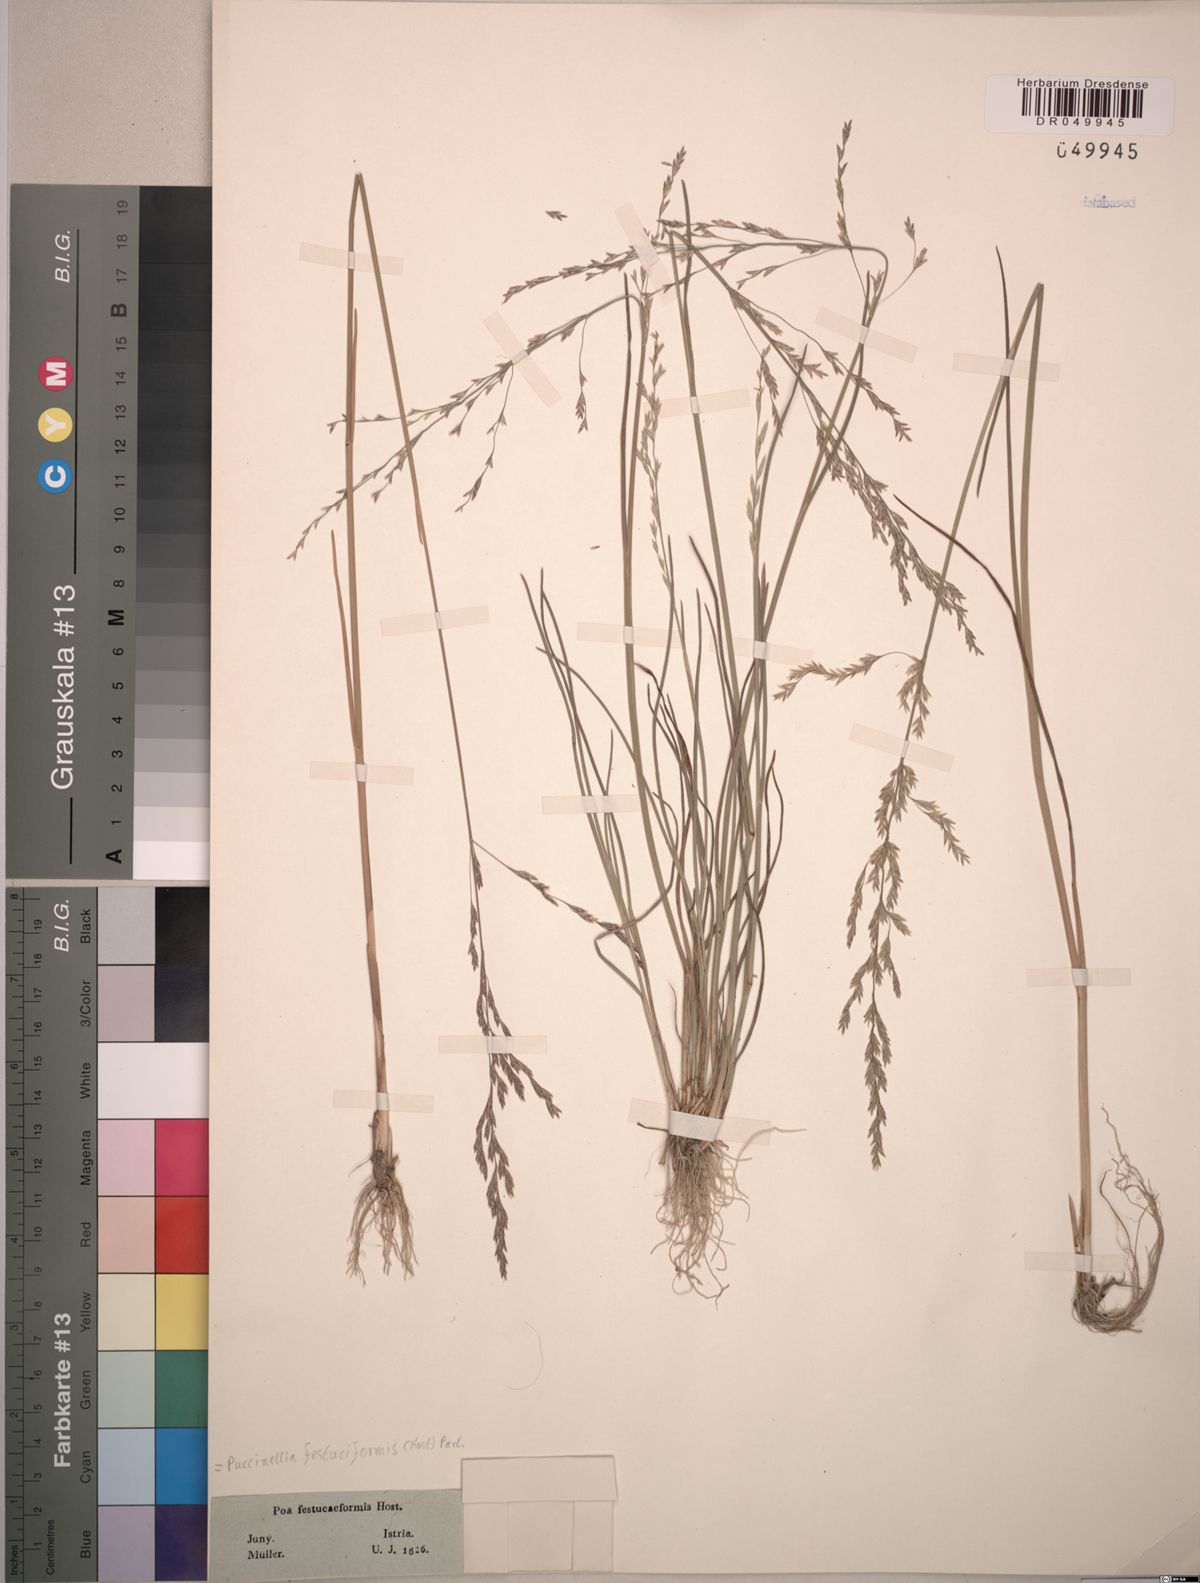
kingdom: Plantae
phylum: Tracheophyta
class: Liliopsida
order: Poales
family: Poaceae
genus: Puccinellia
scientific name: Puccinellia festuciformis
